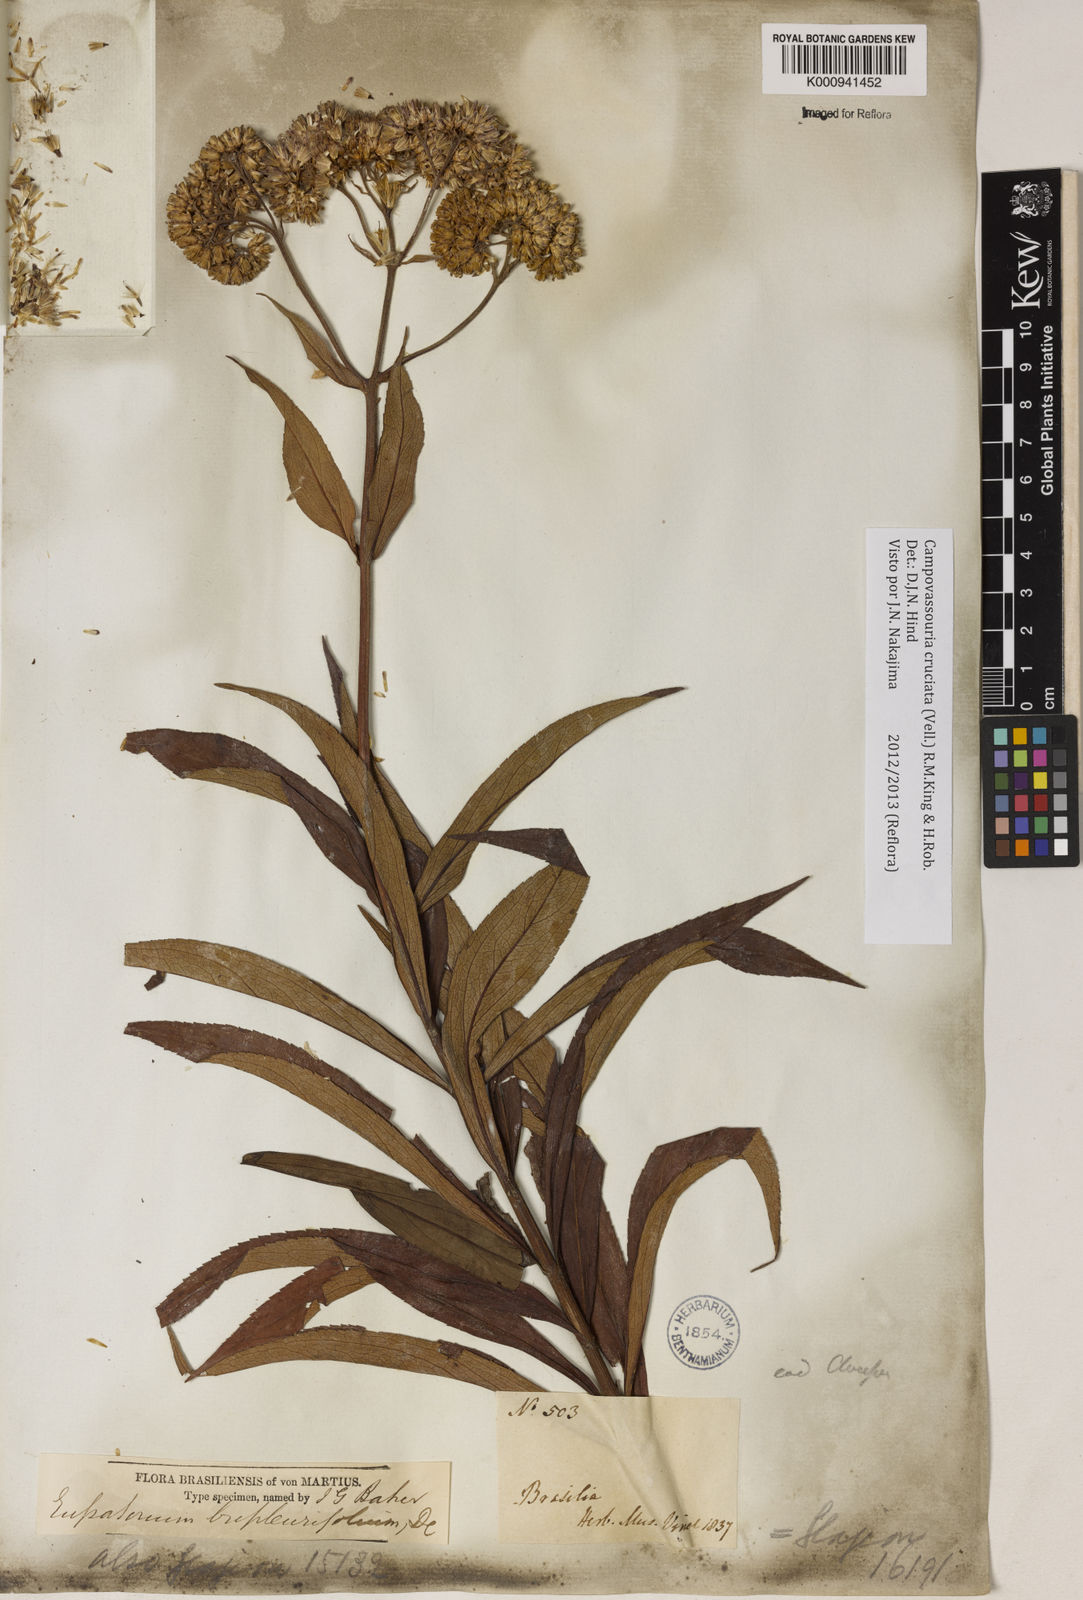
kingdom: Plantae
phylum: Tracheophyta
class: Magnoliopsida
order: Asterales
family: Asteraceae
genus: Campovassouria
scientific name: Campovassouria cruciata
